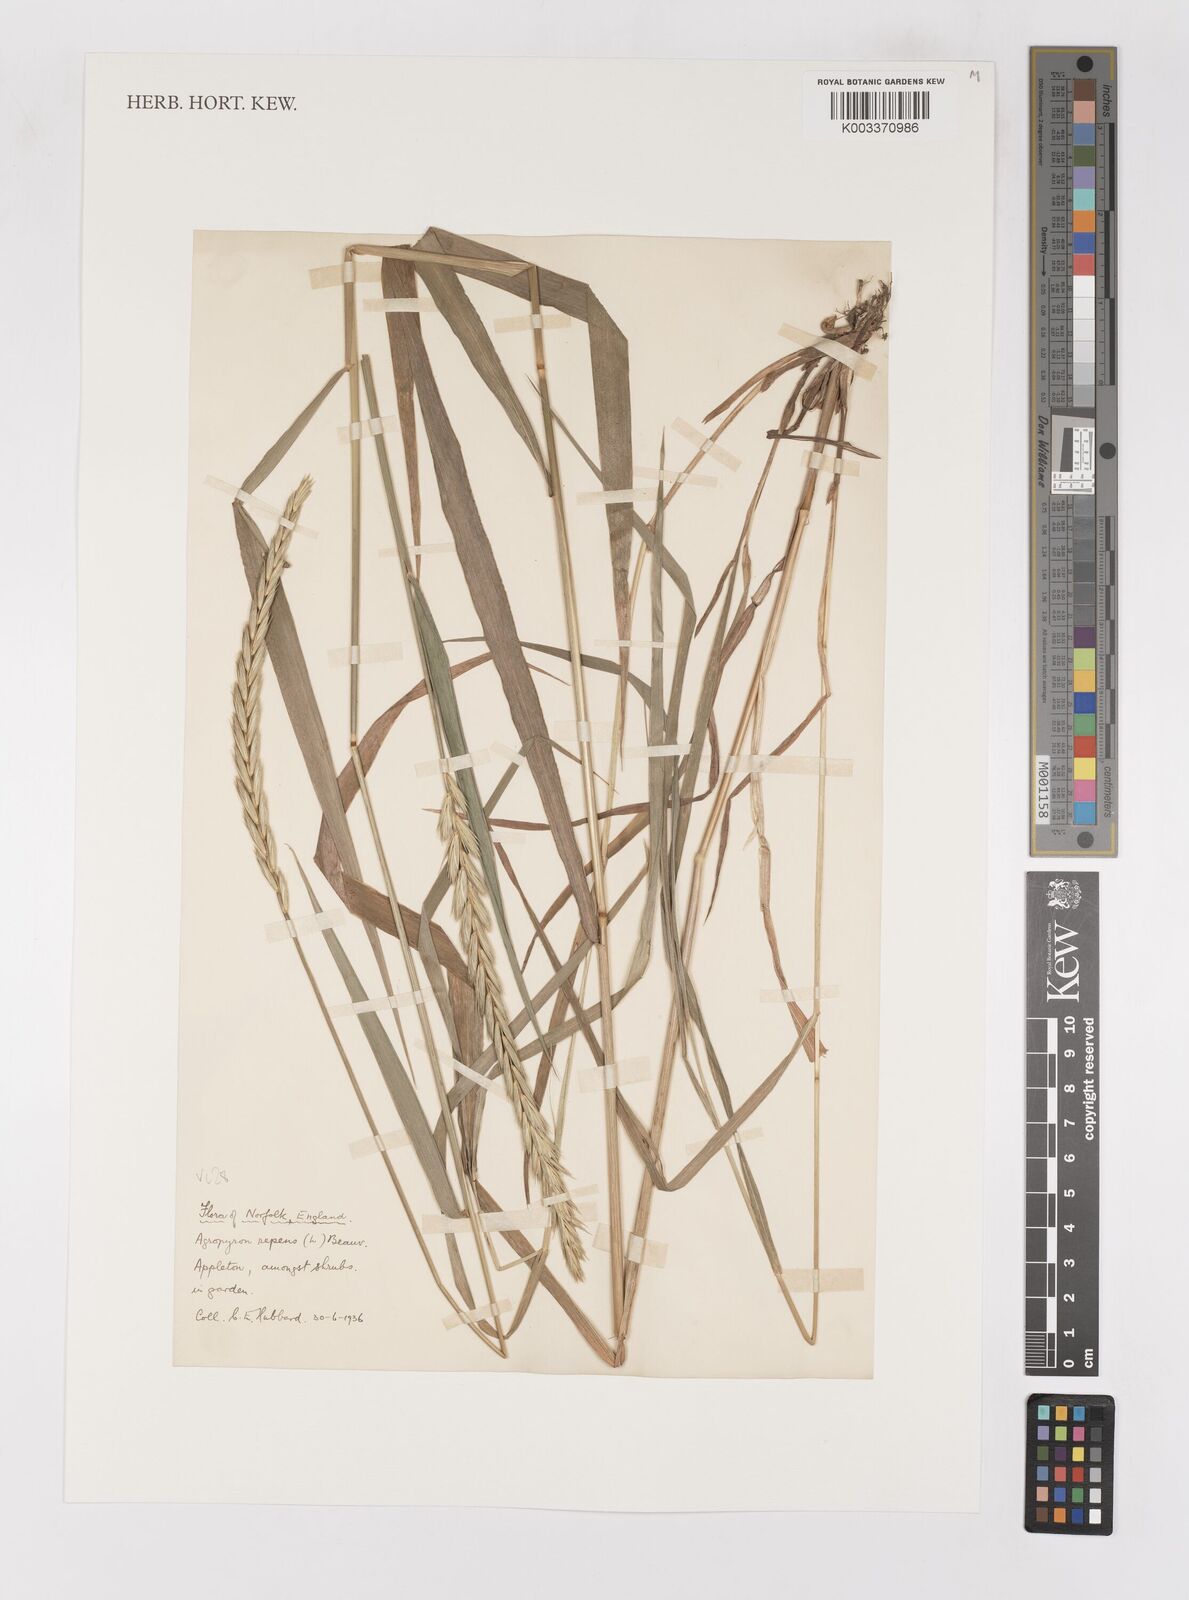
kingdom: Plantae
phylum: Tracheophyta
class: Liliopsida
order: Poales
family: Poaceae
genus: Elymus
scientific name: Elymus repens
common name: Quackgrass
